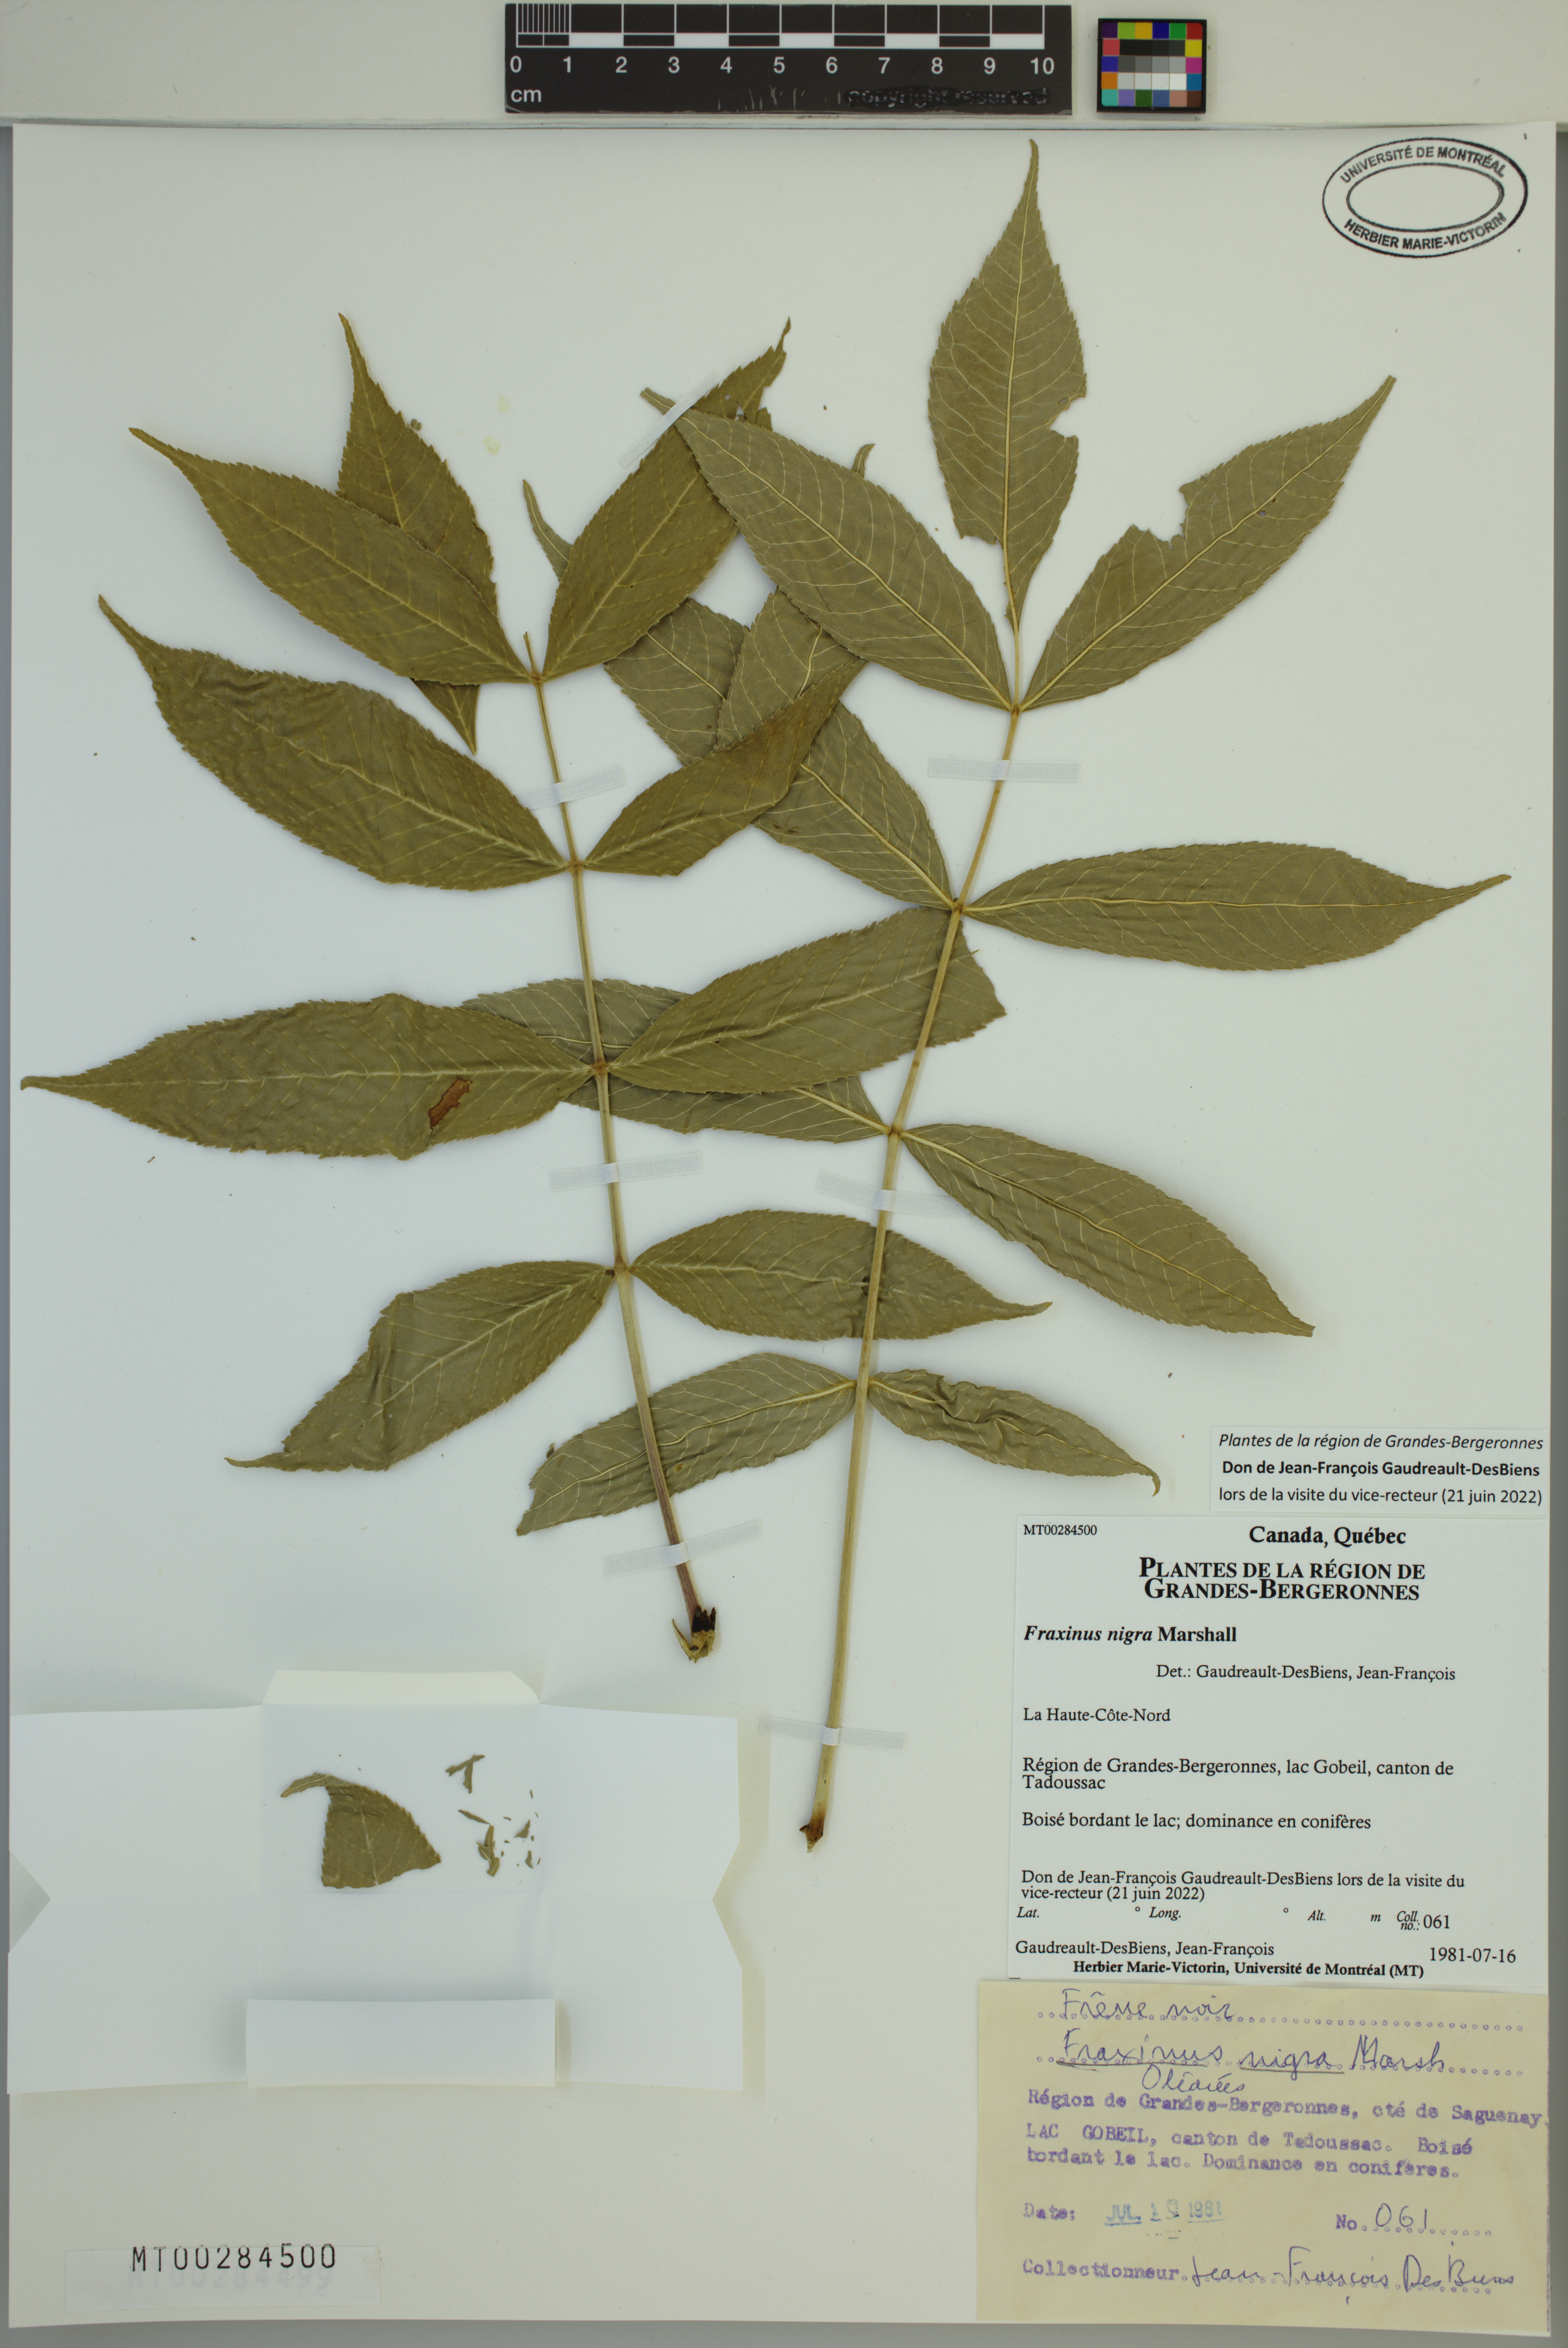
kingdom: Plantae
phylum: Tracheophyta
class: Magnoliopsida
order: Lamiales
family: Oleaceae
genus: Fraxinus
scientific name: Fraxinus nigra
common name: Black ash
